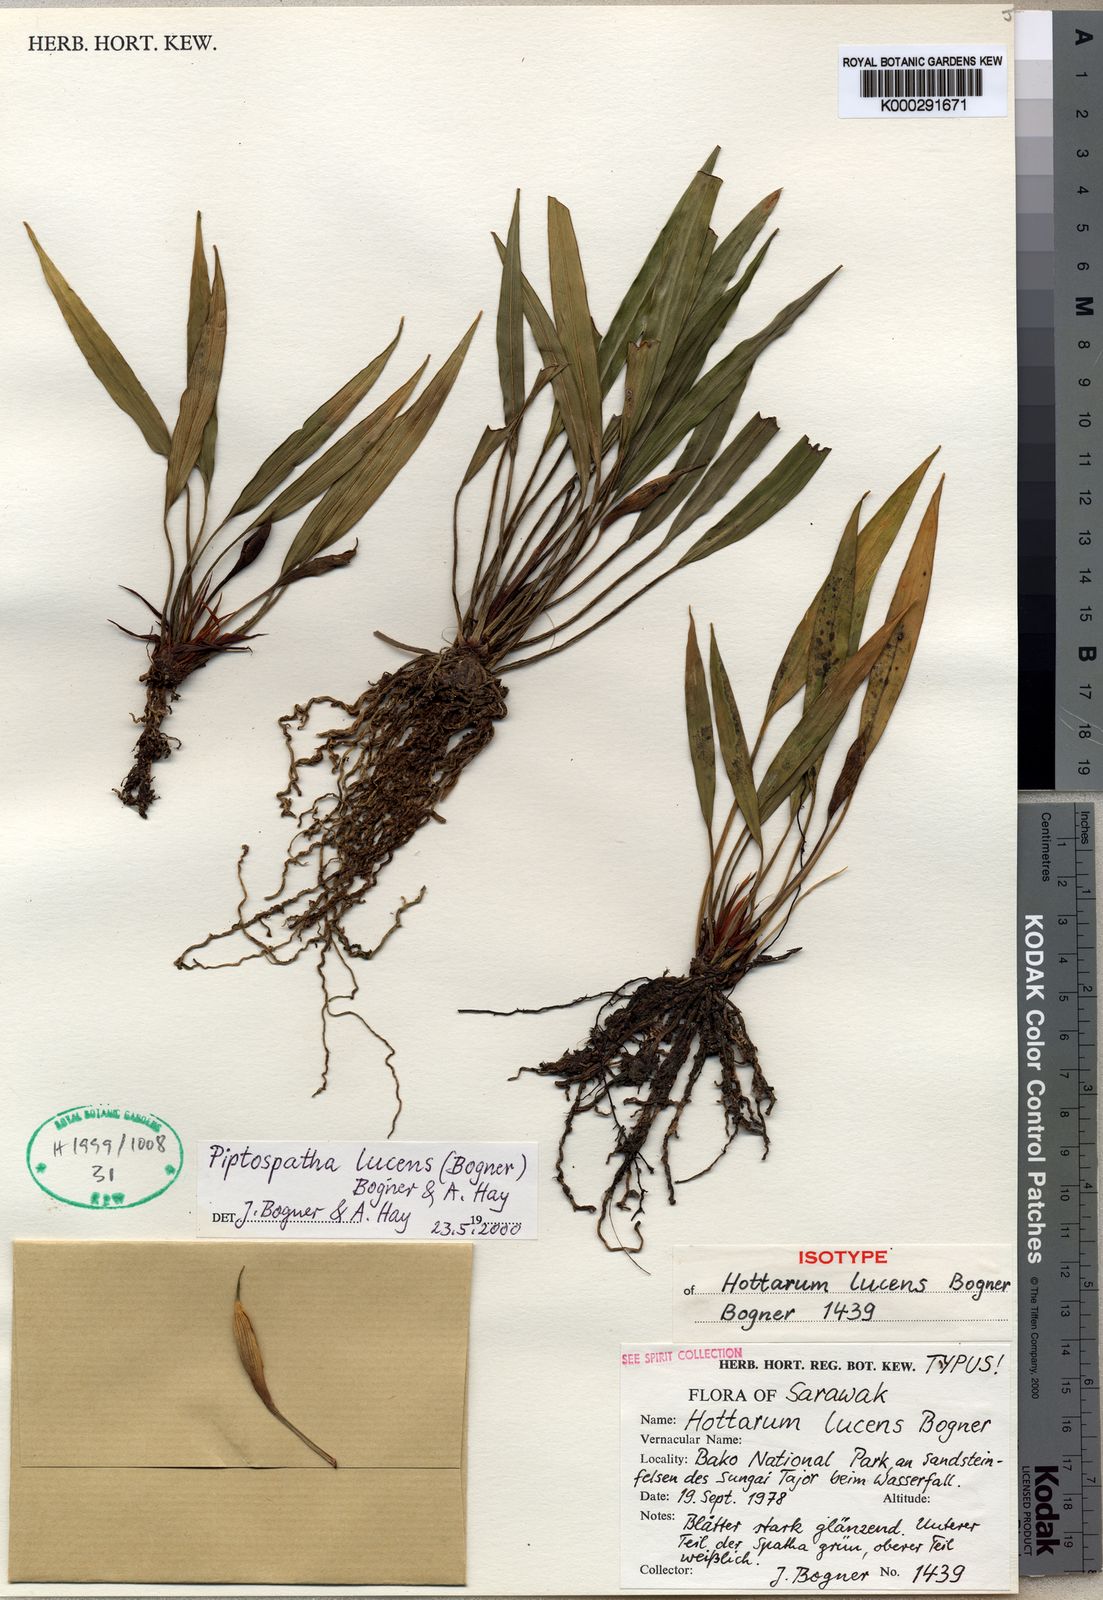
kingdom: Plantae
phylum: Tracheophyta
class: Liliopsida
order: Alismatales
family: Araceae
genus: Bakoa
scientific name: Bakoa lucens
